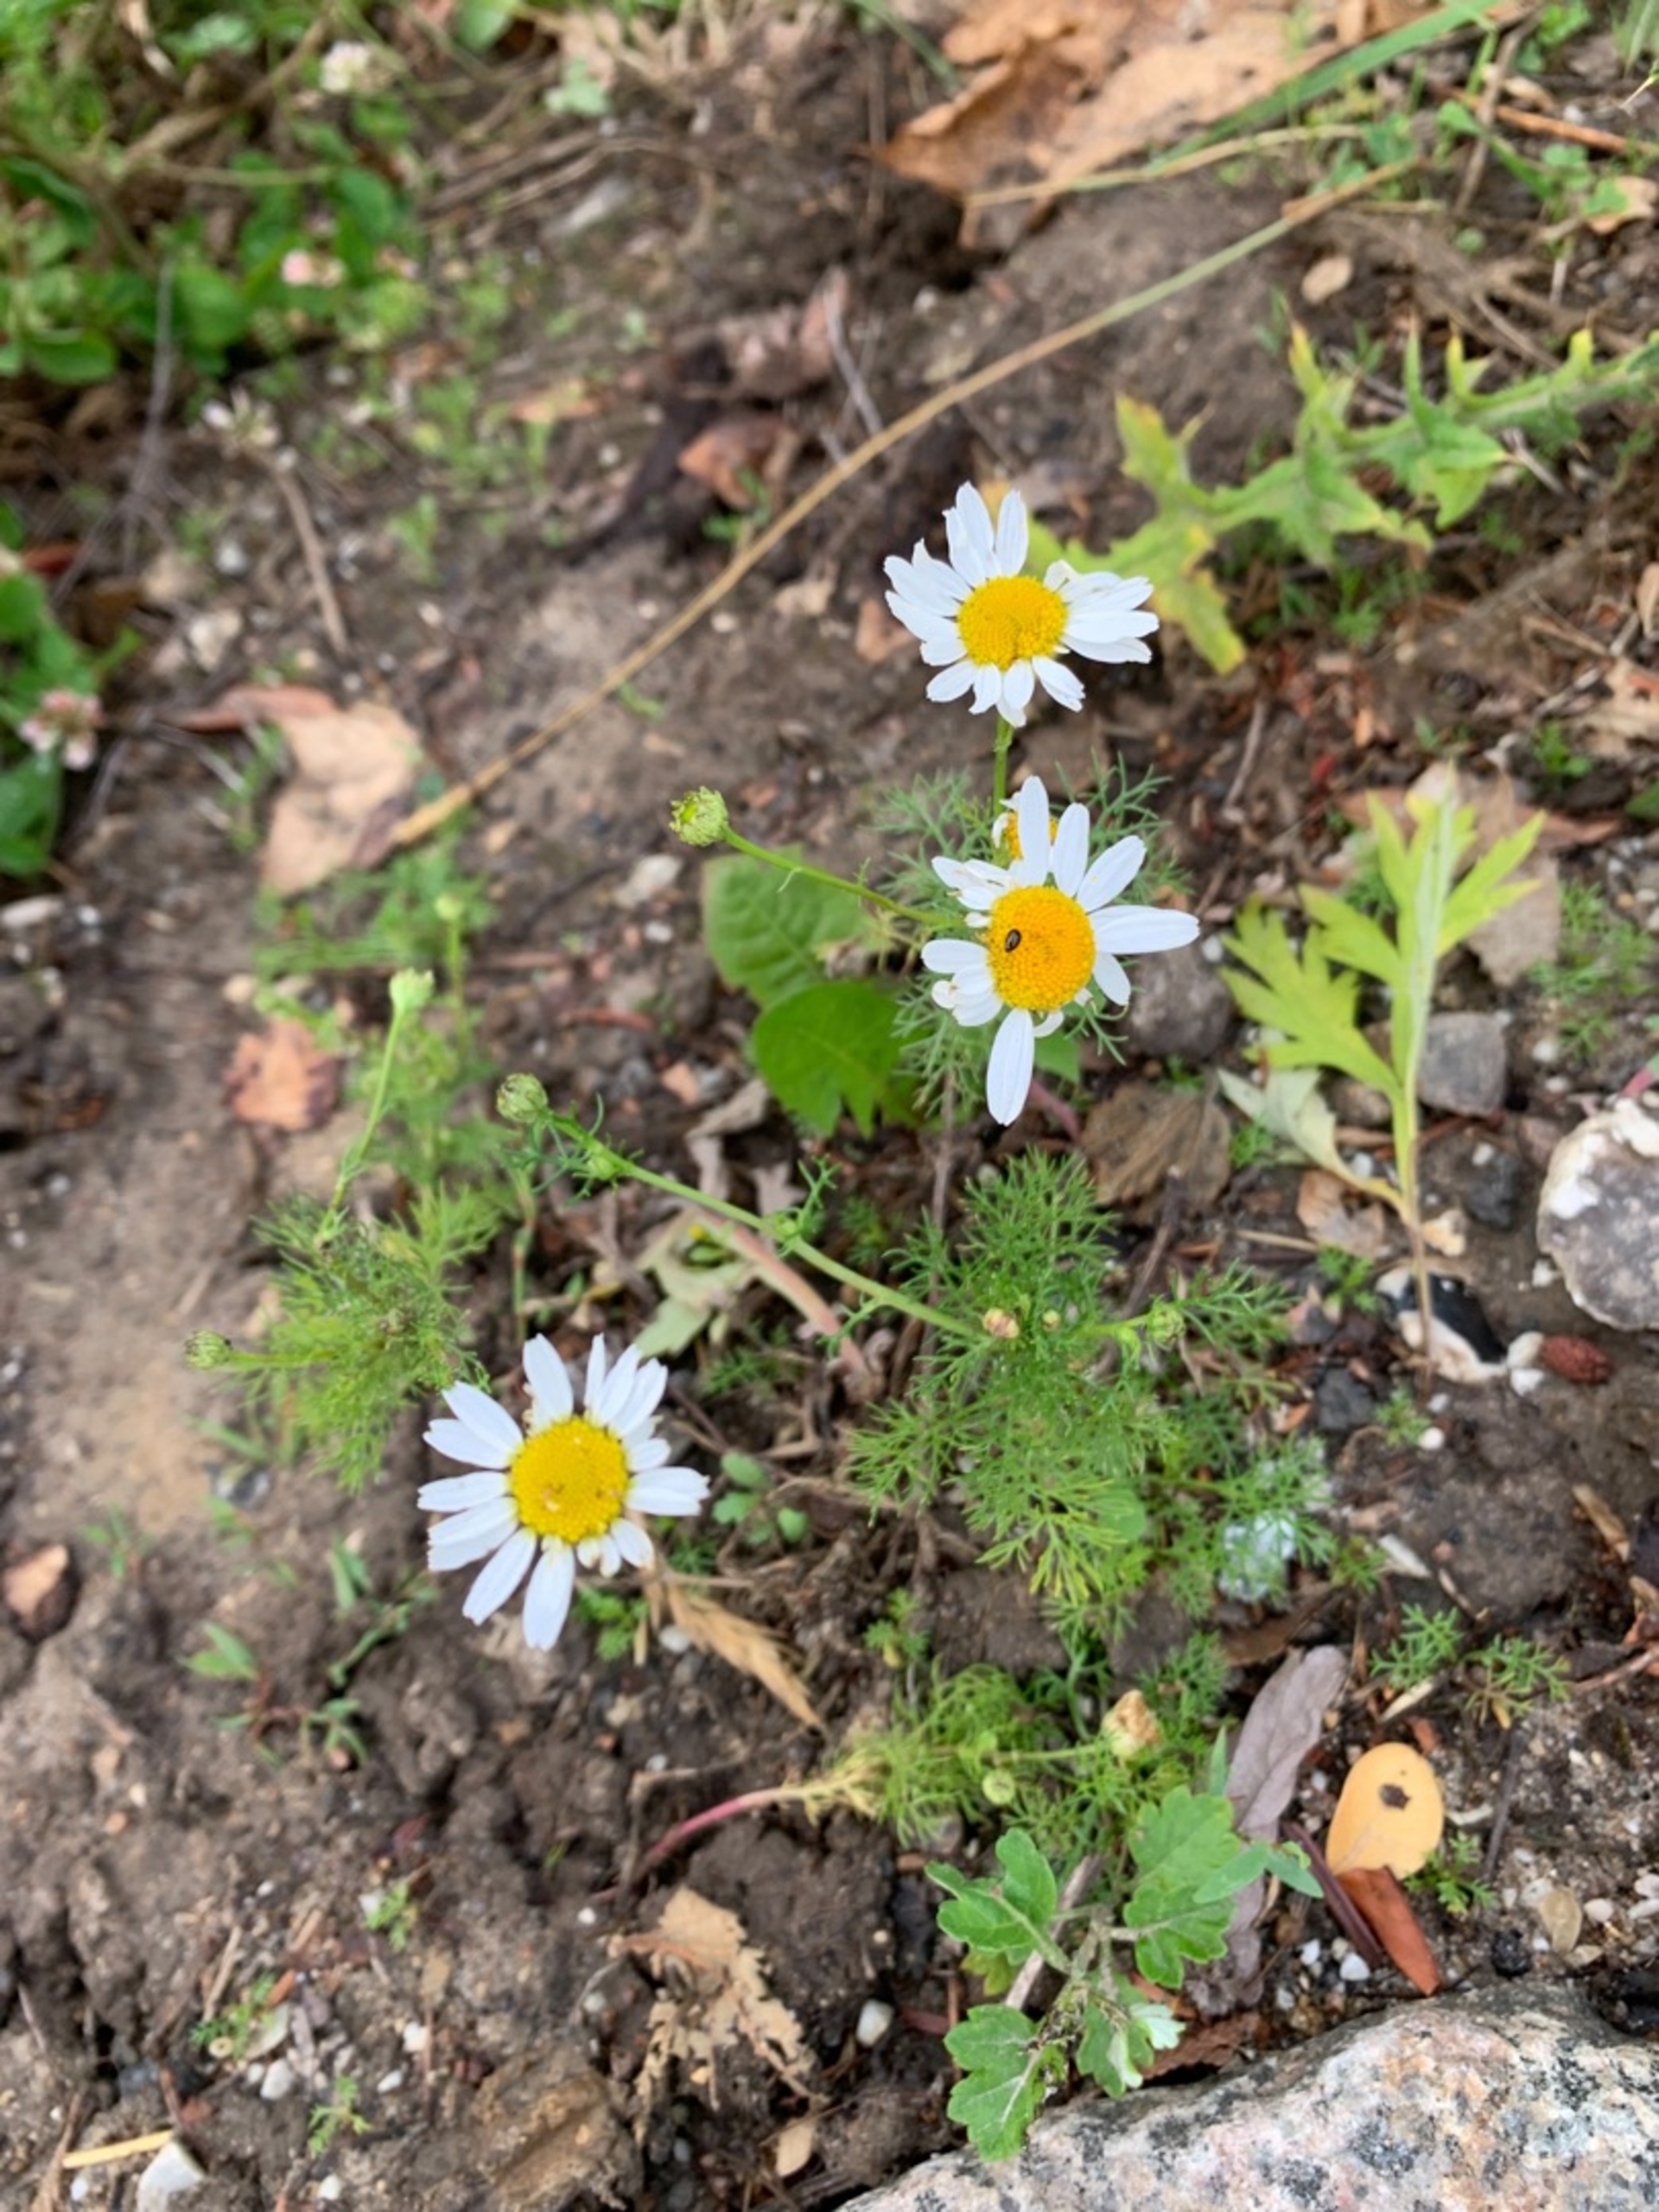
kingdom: Plantae
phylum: Tracheophyta
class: Magnoliopsida
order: Asterales
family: Asteraceae
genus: Tripleurospermum
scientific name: Tripleurospermum inodorum
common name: Lugtløs kamille
